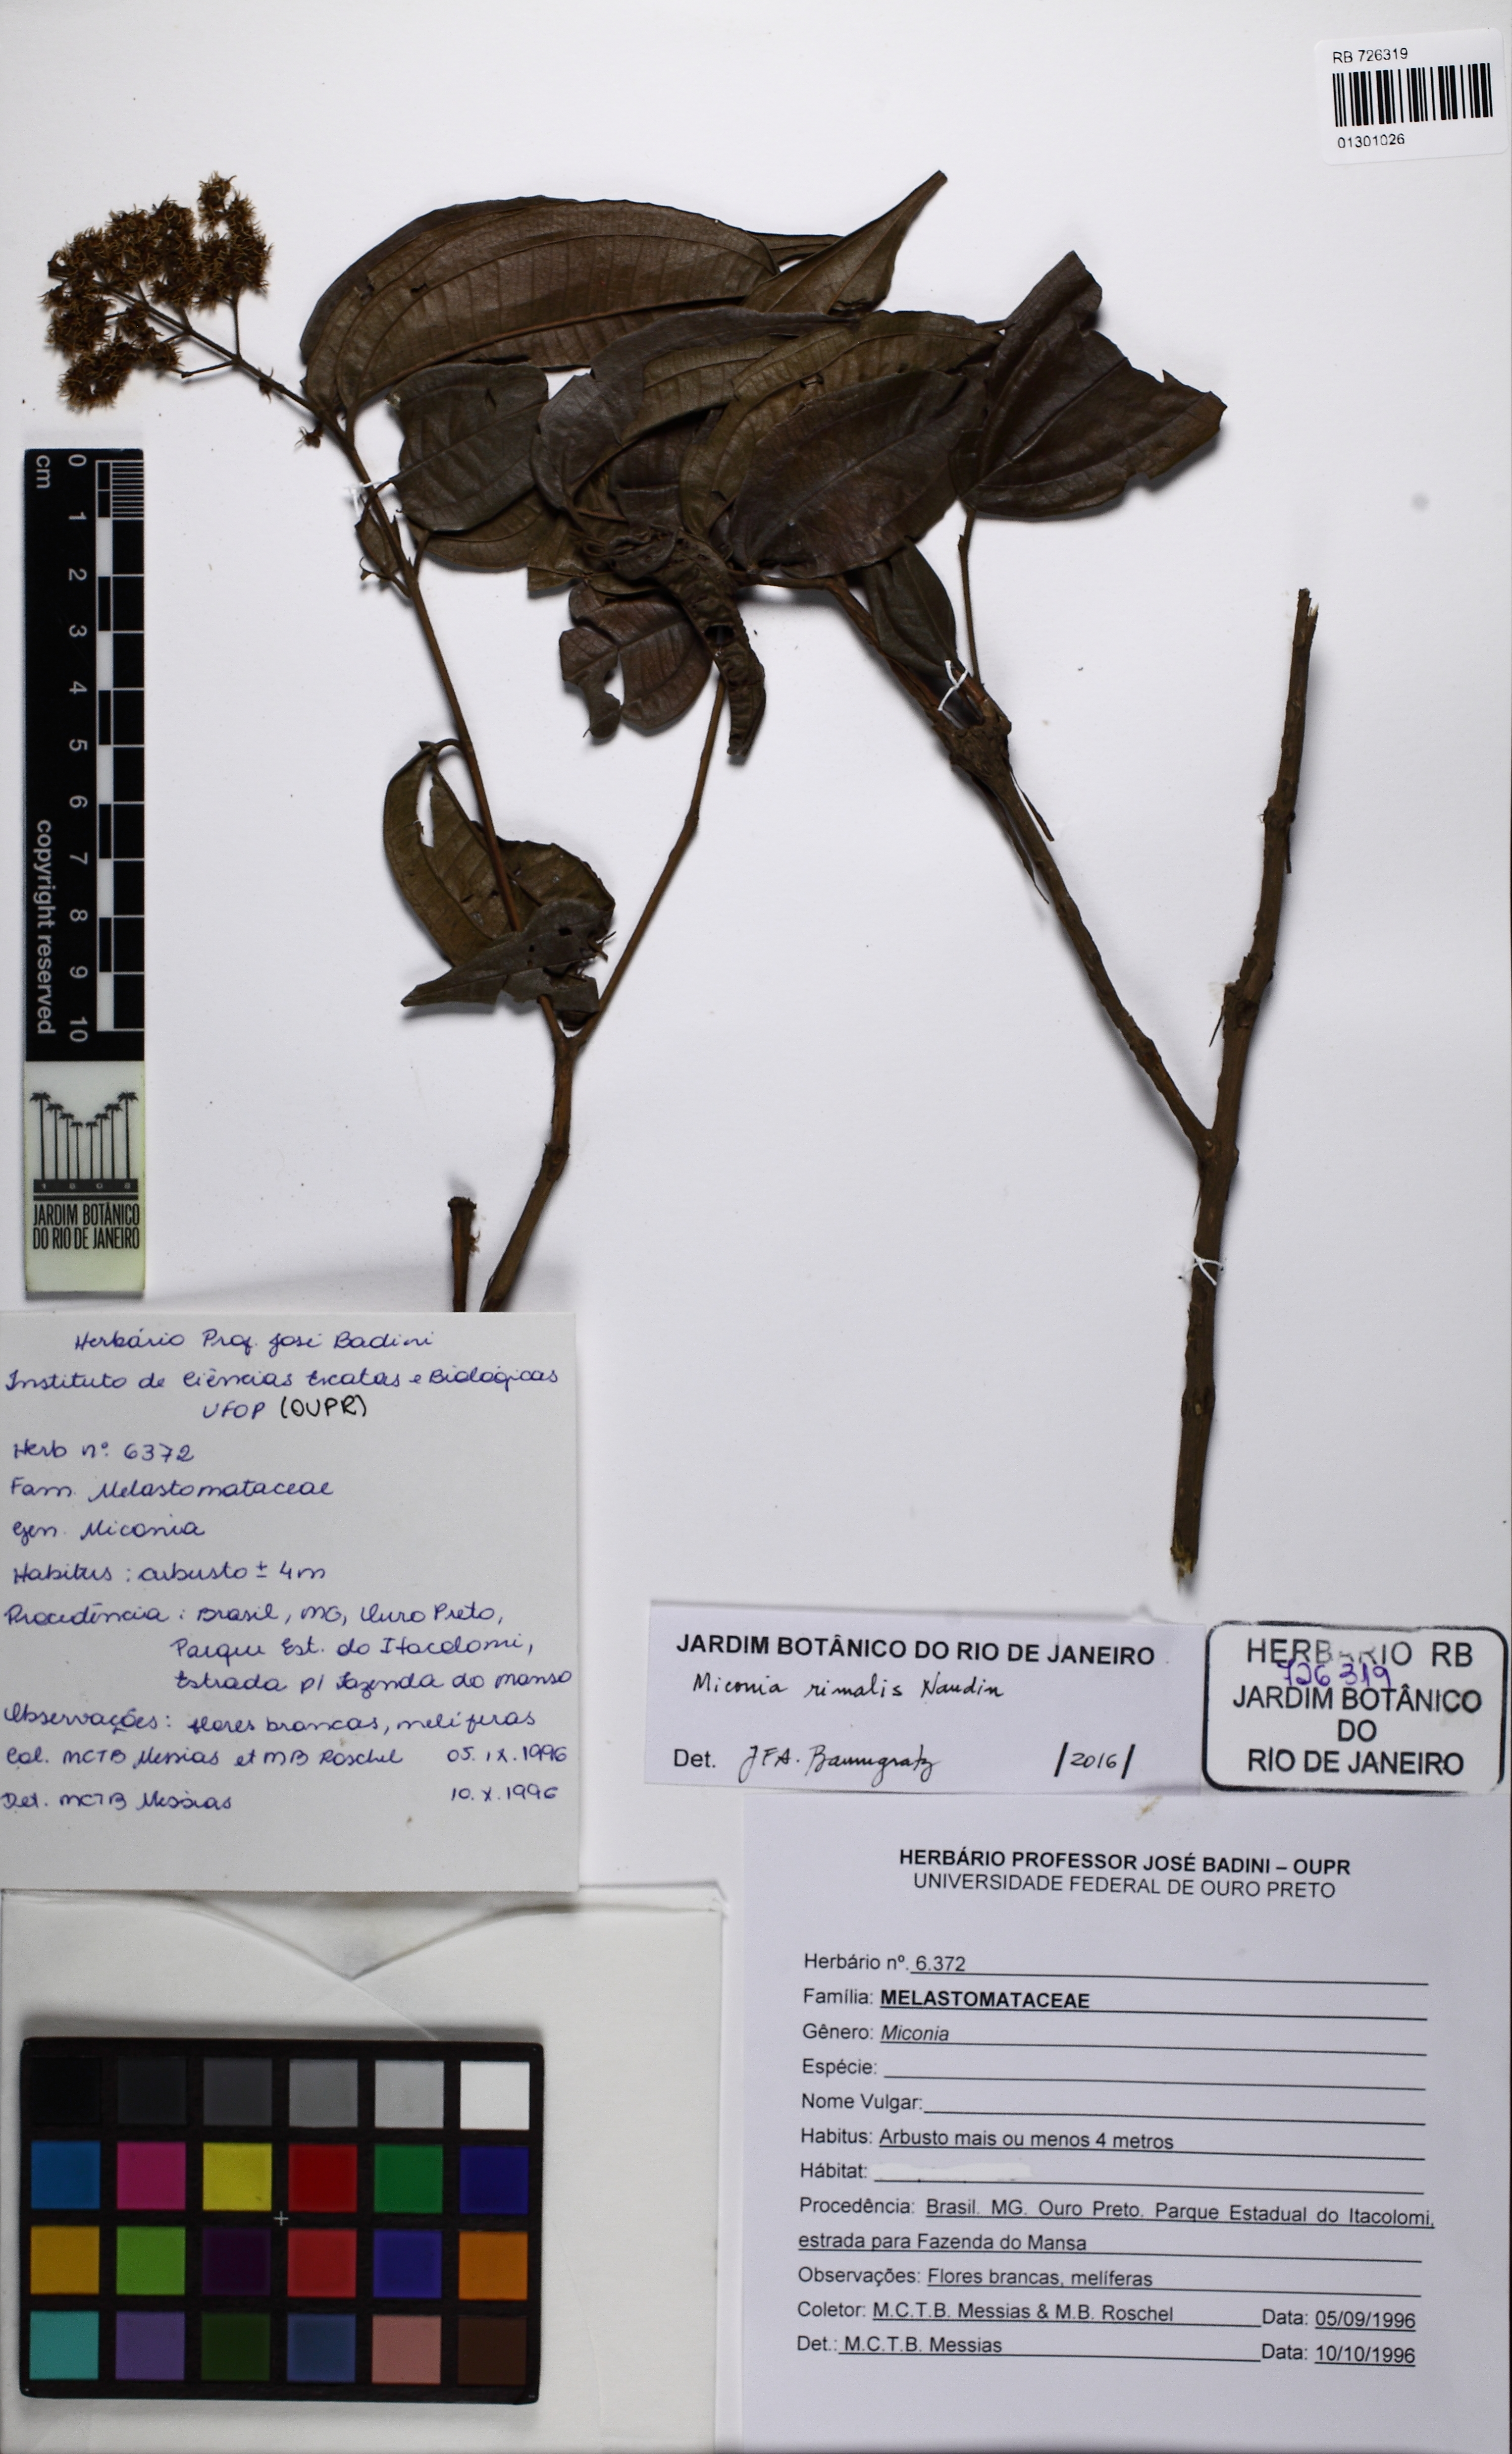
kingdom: Plantae
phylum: Tracheophyta
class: Magnoliopsida
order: Myrtales
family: Melastomataceae
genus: Miconia
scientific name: Miconia rimalis
